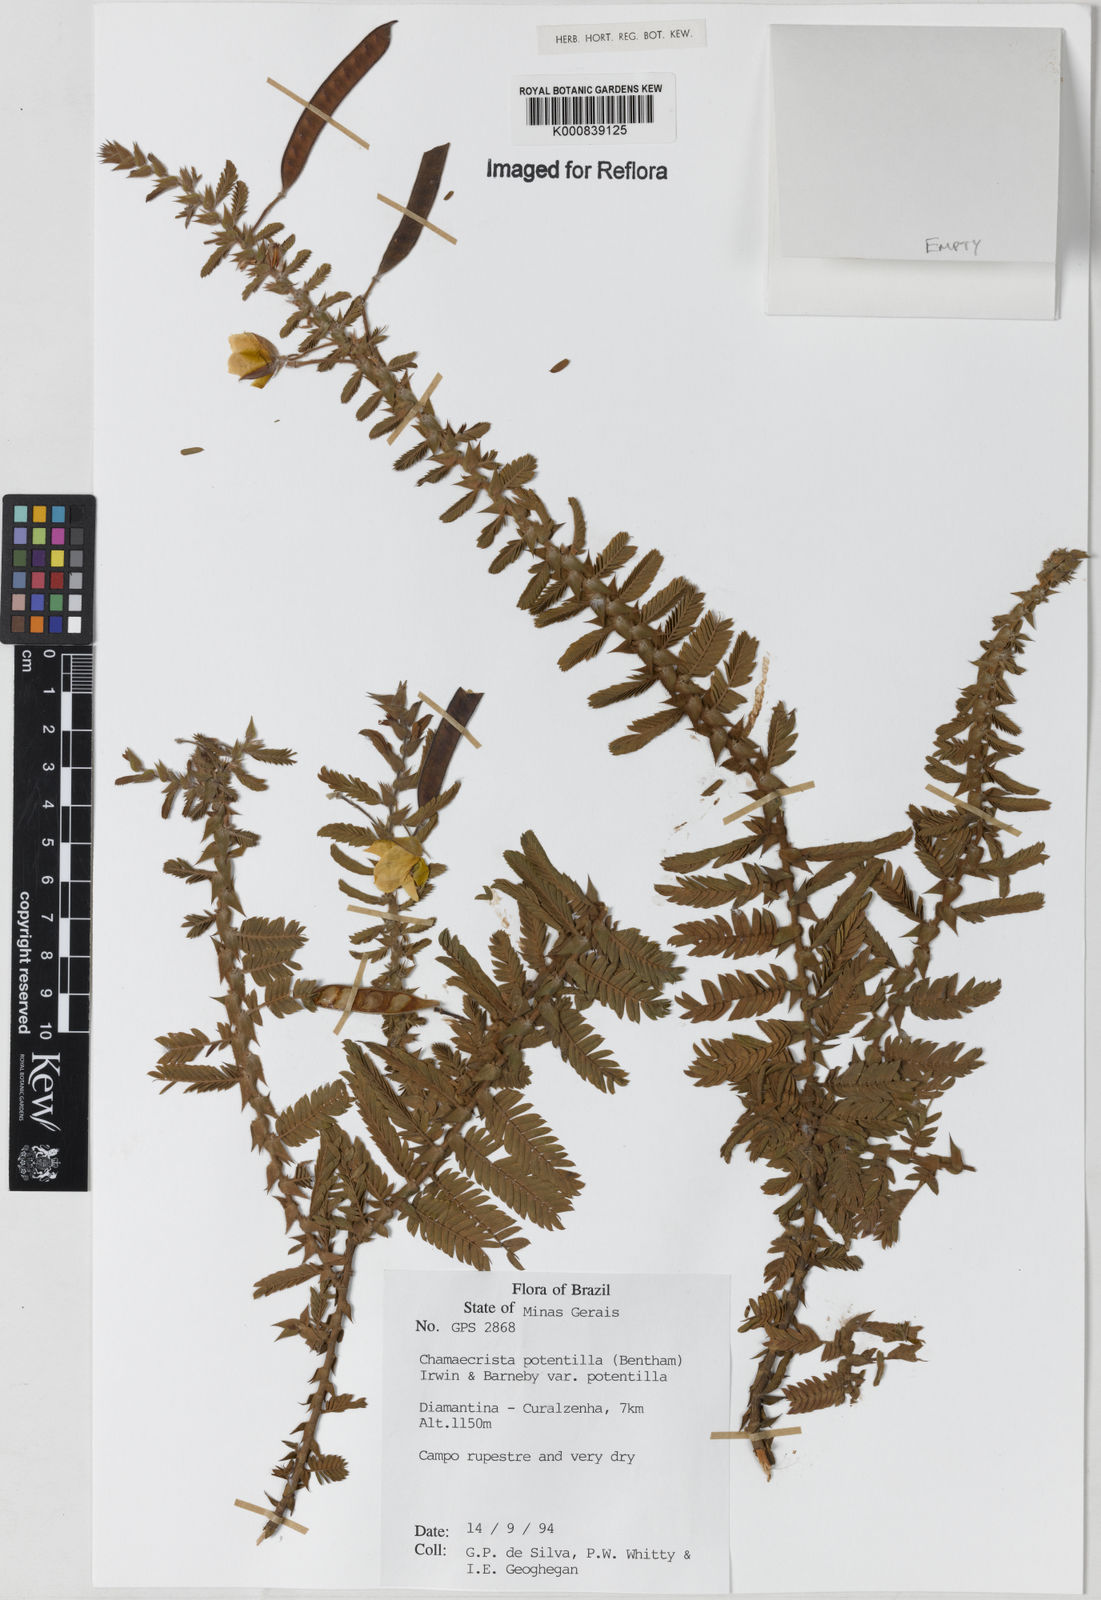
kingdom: Plantae
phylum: Tracheophyta
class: Magnoliopsida
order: Fabales
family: Fabaceae
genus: Chamaecrista
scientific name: Chamaecrista potentilla
